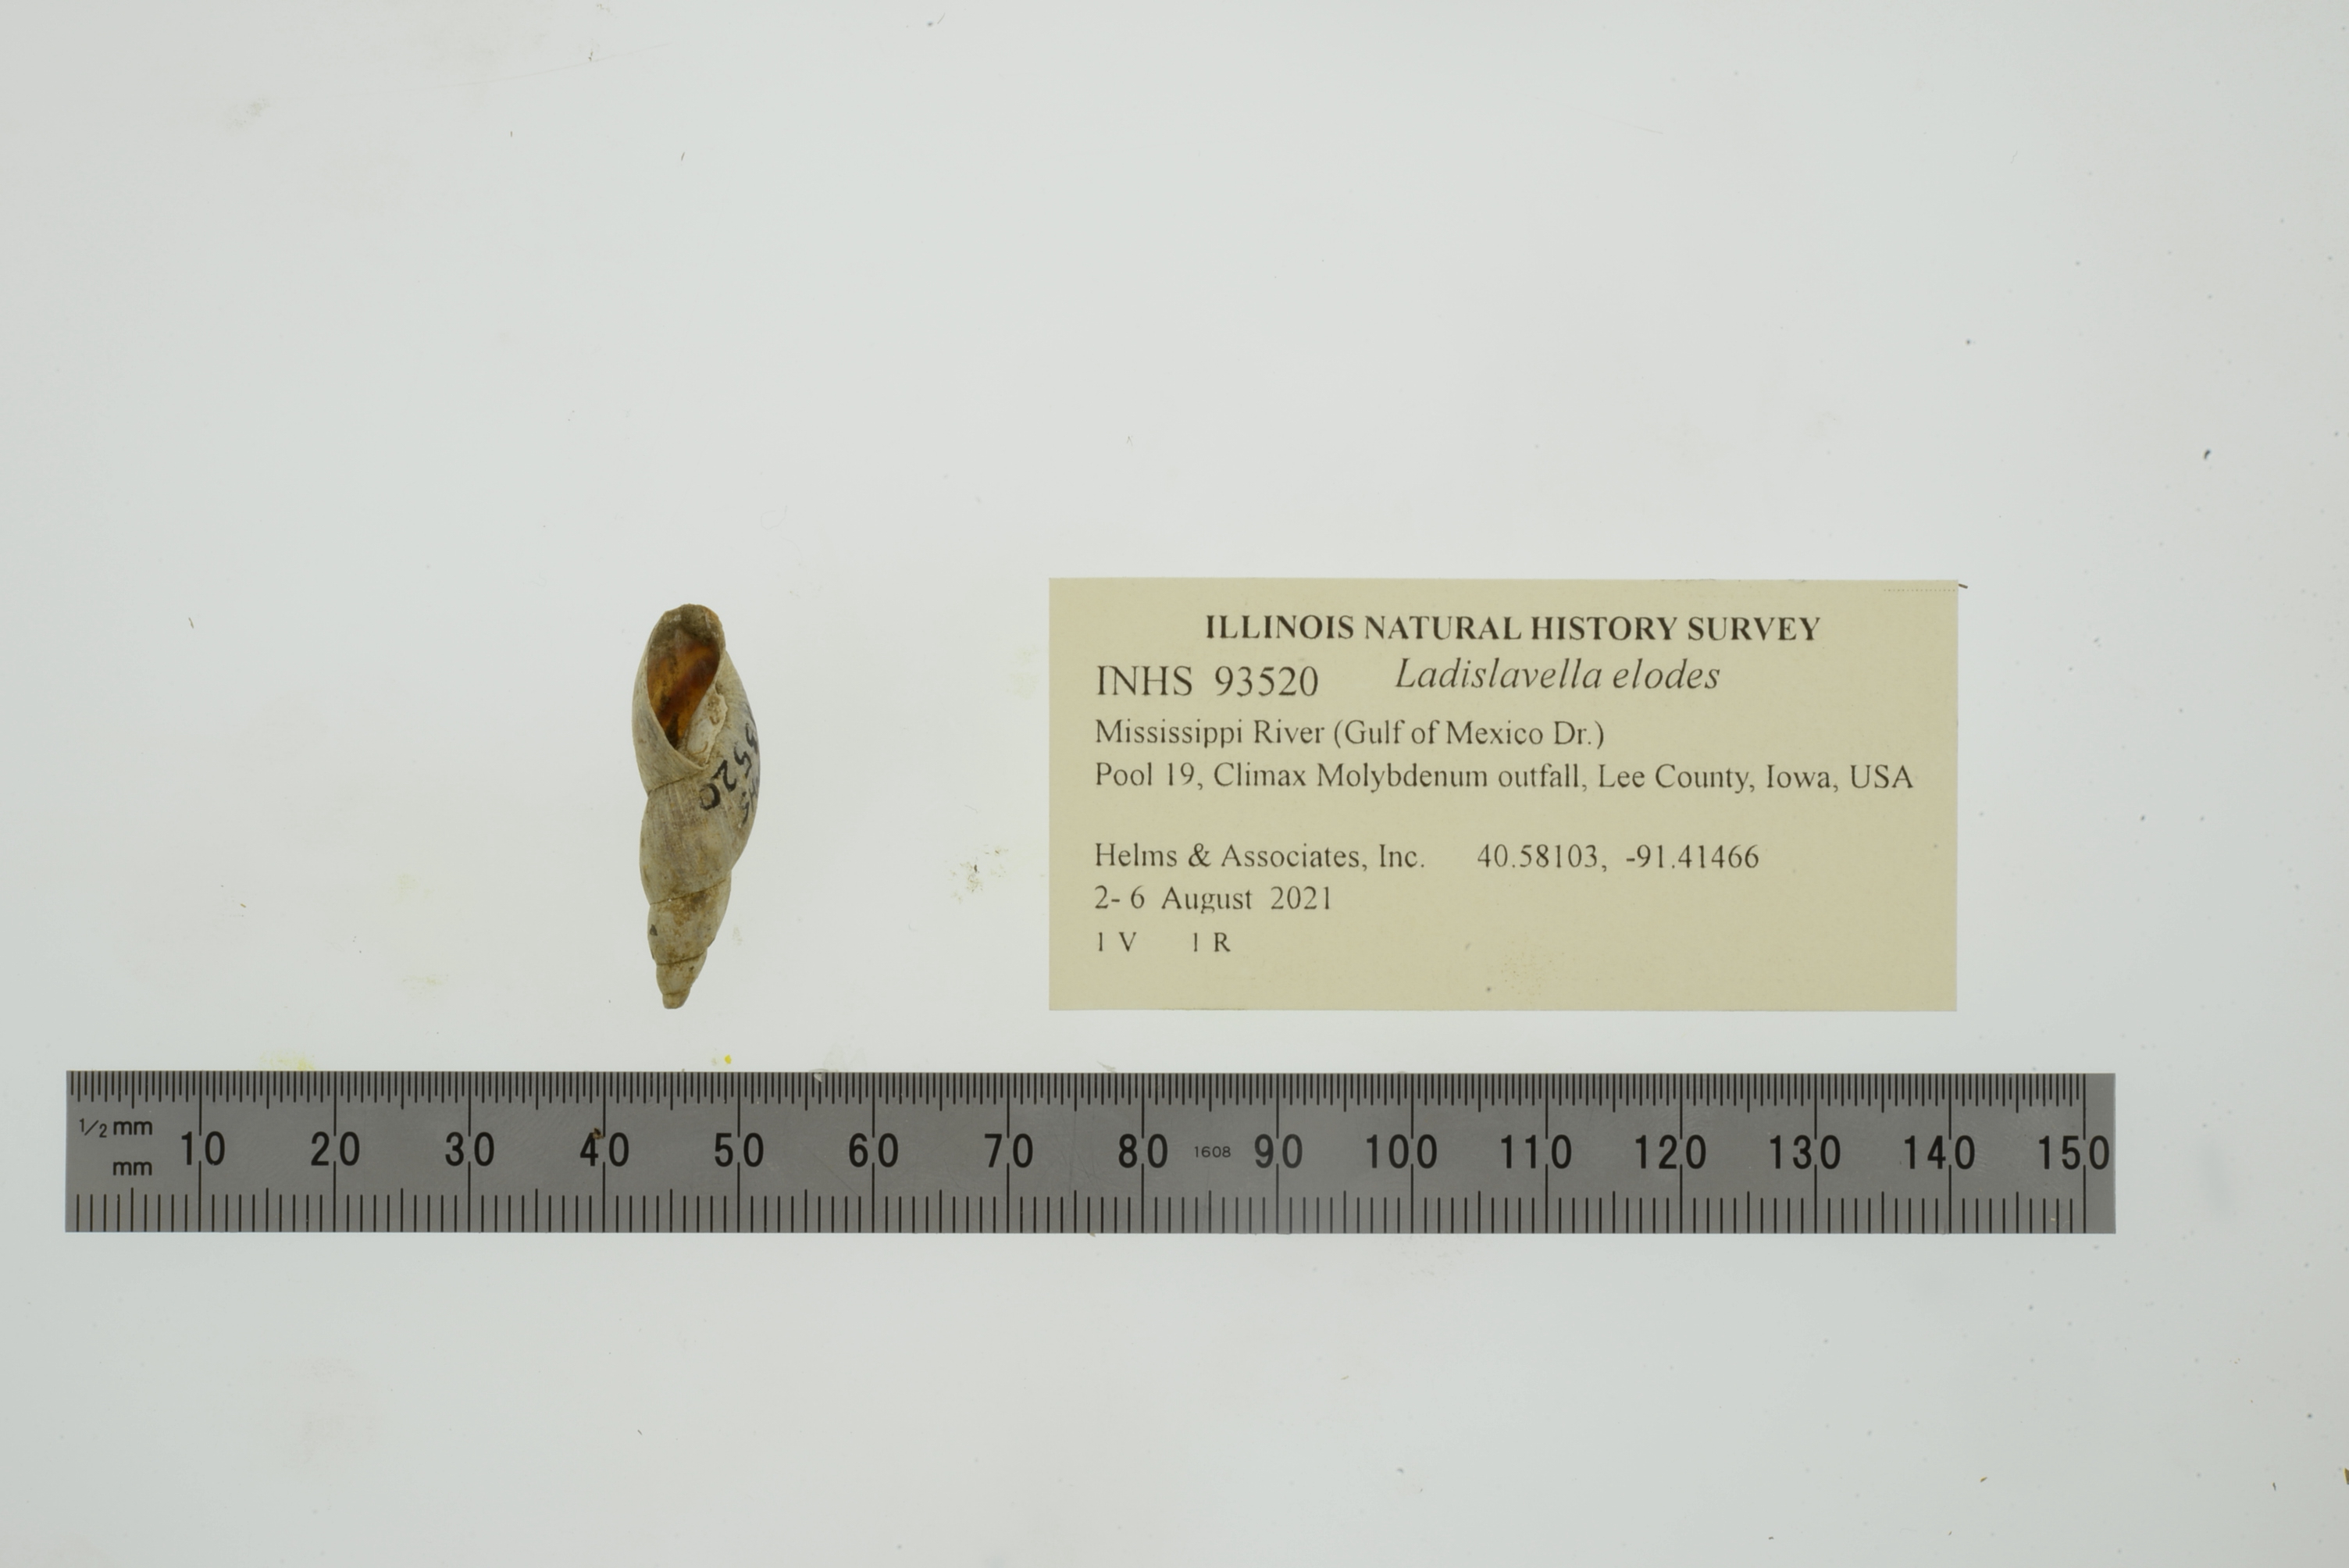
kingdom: Animalia
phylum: Mollusca
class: Gastropoda
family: Lymnaeidae
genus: Ladislavella
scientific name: Ladislavella elodes
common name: Marsh pondsnail
